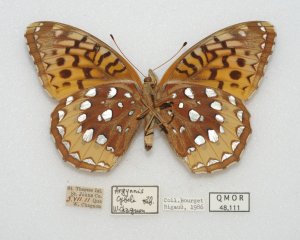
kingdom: Animalia
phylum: Arthropoda
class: Insecta
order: Lepidoptera
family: Nymphalidae
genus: Speyeria
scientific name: Speyeria cybele
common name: Great Spangled Fritillary
